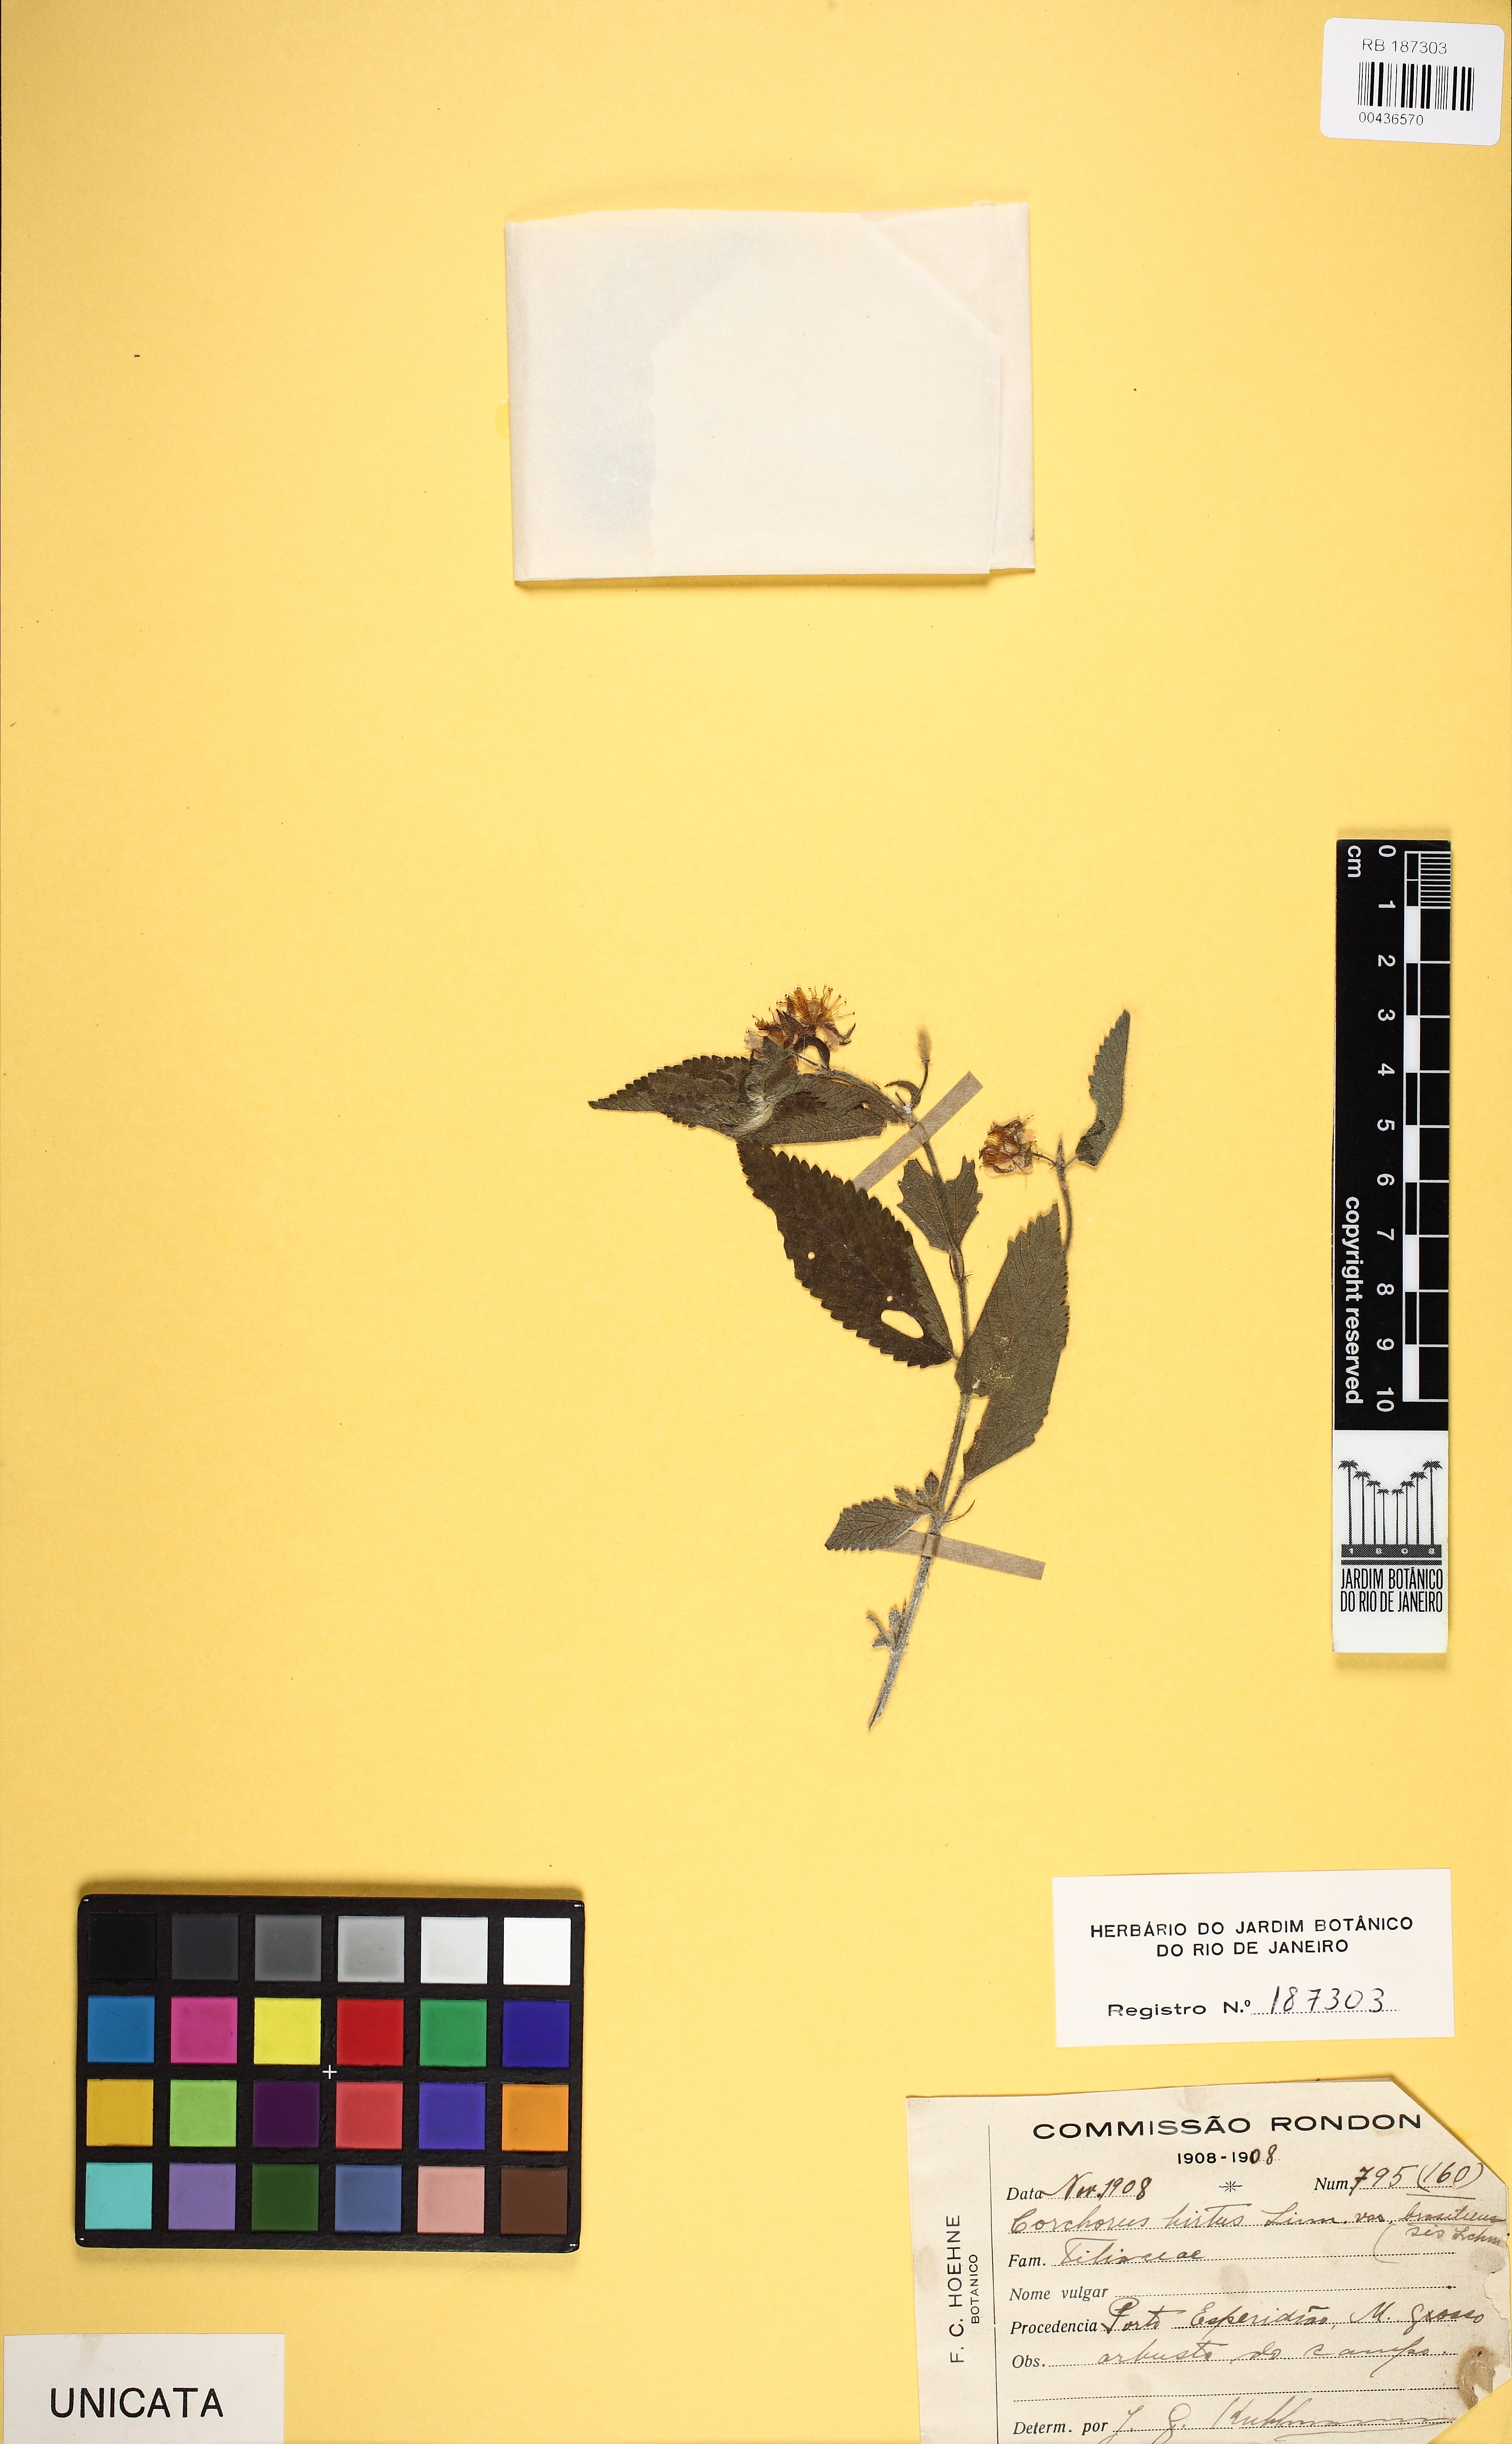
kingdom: Plantae
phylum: Tracheophyta
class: Magnoliopsida
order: Malvales
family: Malvaceae
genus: Corchorus
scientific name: Corchorus hirtus
